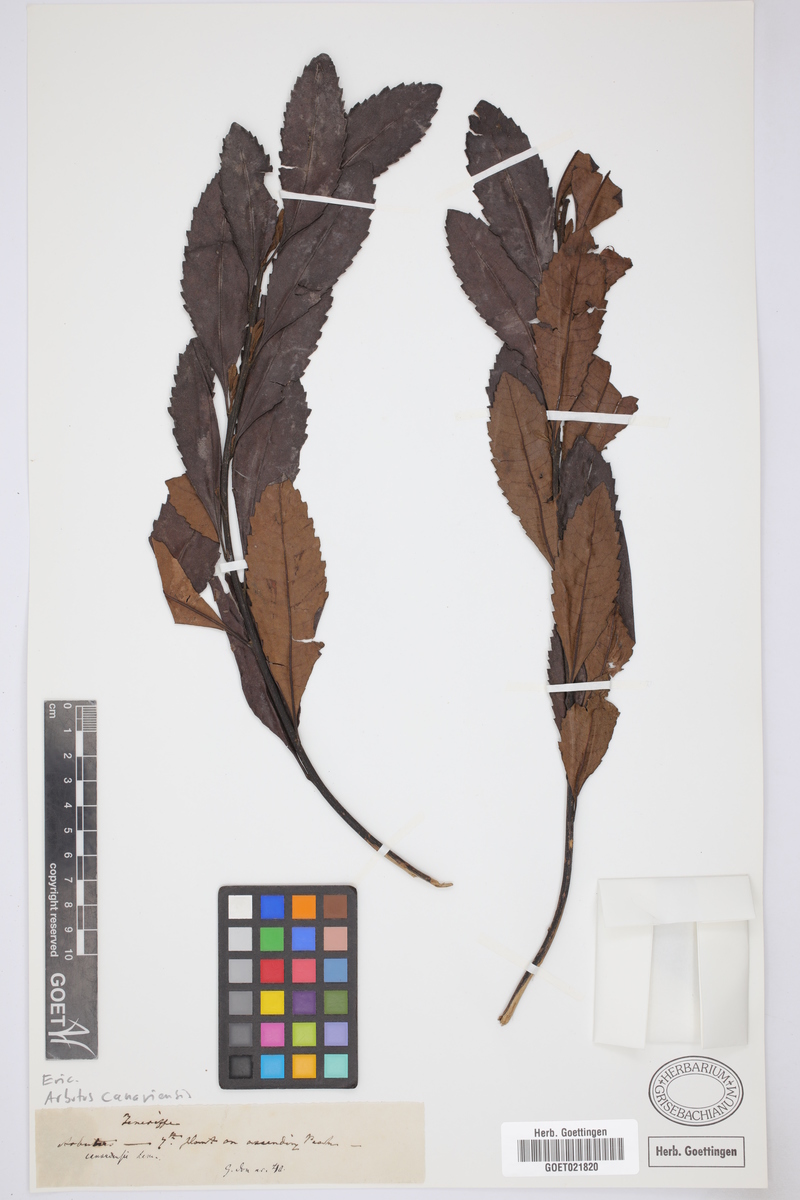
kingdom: Plantae
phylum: Tracheophyta
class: Magnoliopsida
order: Ericales
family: Ericaceae
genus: Arbutus
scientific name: Arbutus canariensis
